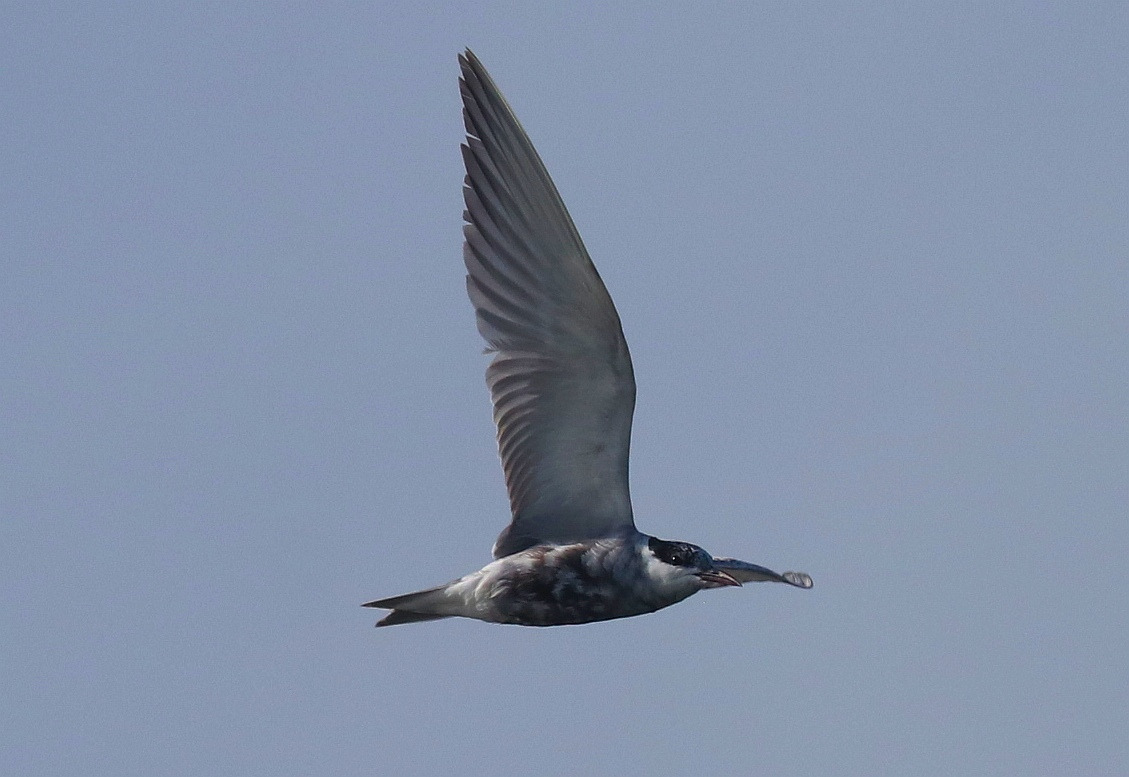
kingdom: Animalia
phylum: Chordata
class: Aves
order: Charadriiformes
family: Laridae
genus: Chlidonias
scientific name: Chlidonias hybrida
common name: Hvidskægget terne
